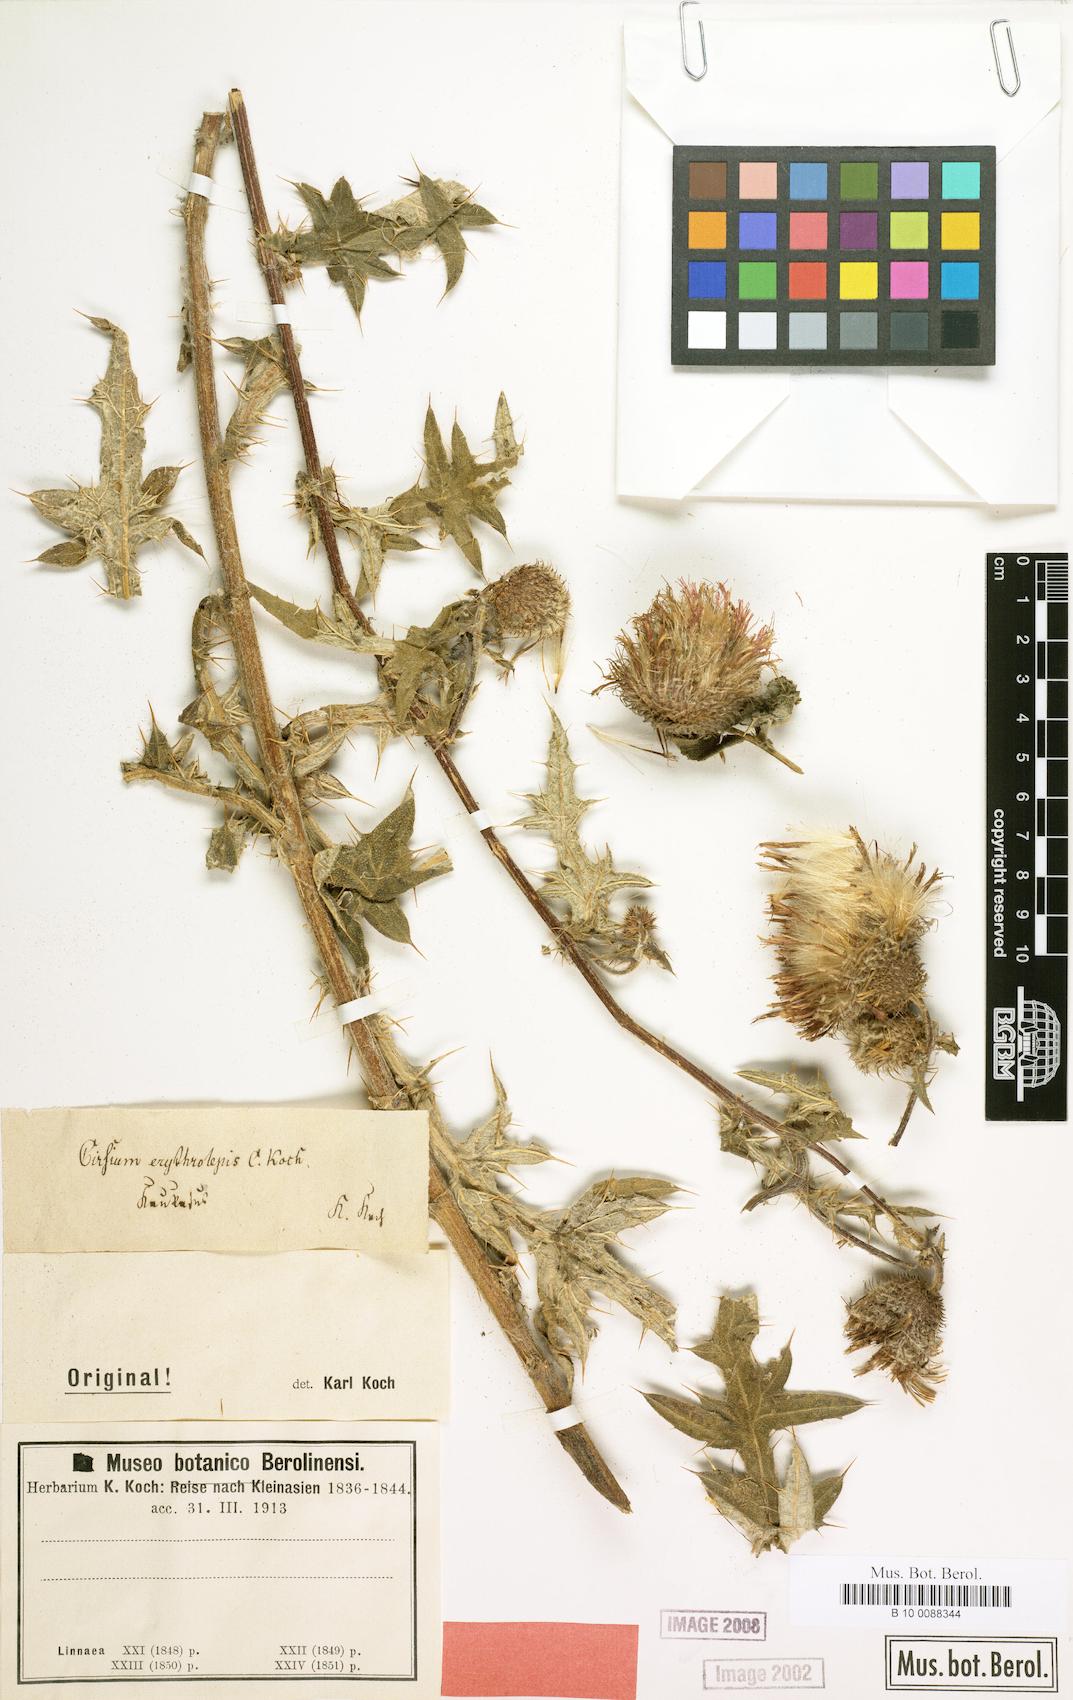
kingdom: Plantae
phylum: Tracheophyta
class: Magnoliopsida
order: Asterales
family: Asteraceae
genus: Lophiolepis
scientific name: Lophiolepis erythrolepis
